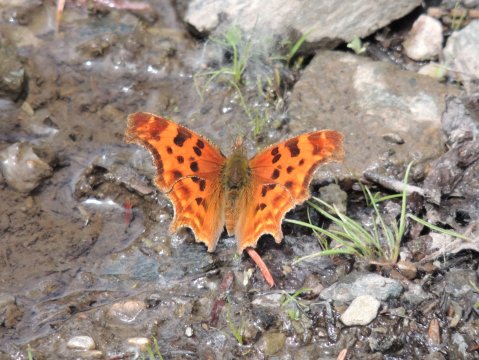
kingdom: Animalia
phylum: Arthropoda
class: Insecta
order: Lepidoptera
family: Nymphalidae
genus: Polygonia
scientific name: Polygonia satyrus
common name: Satyr Comma
